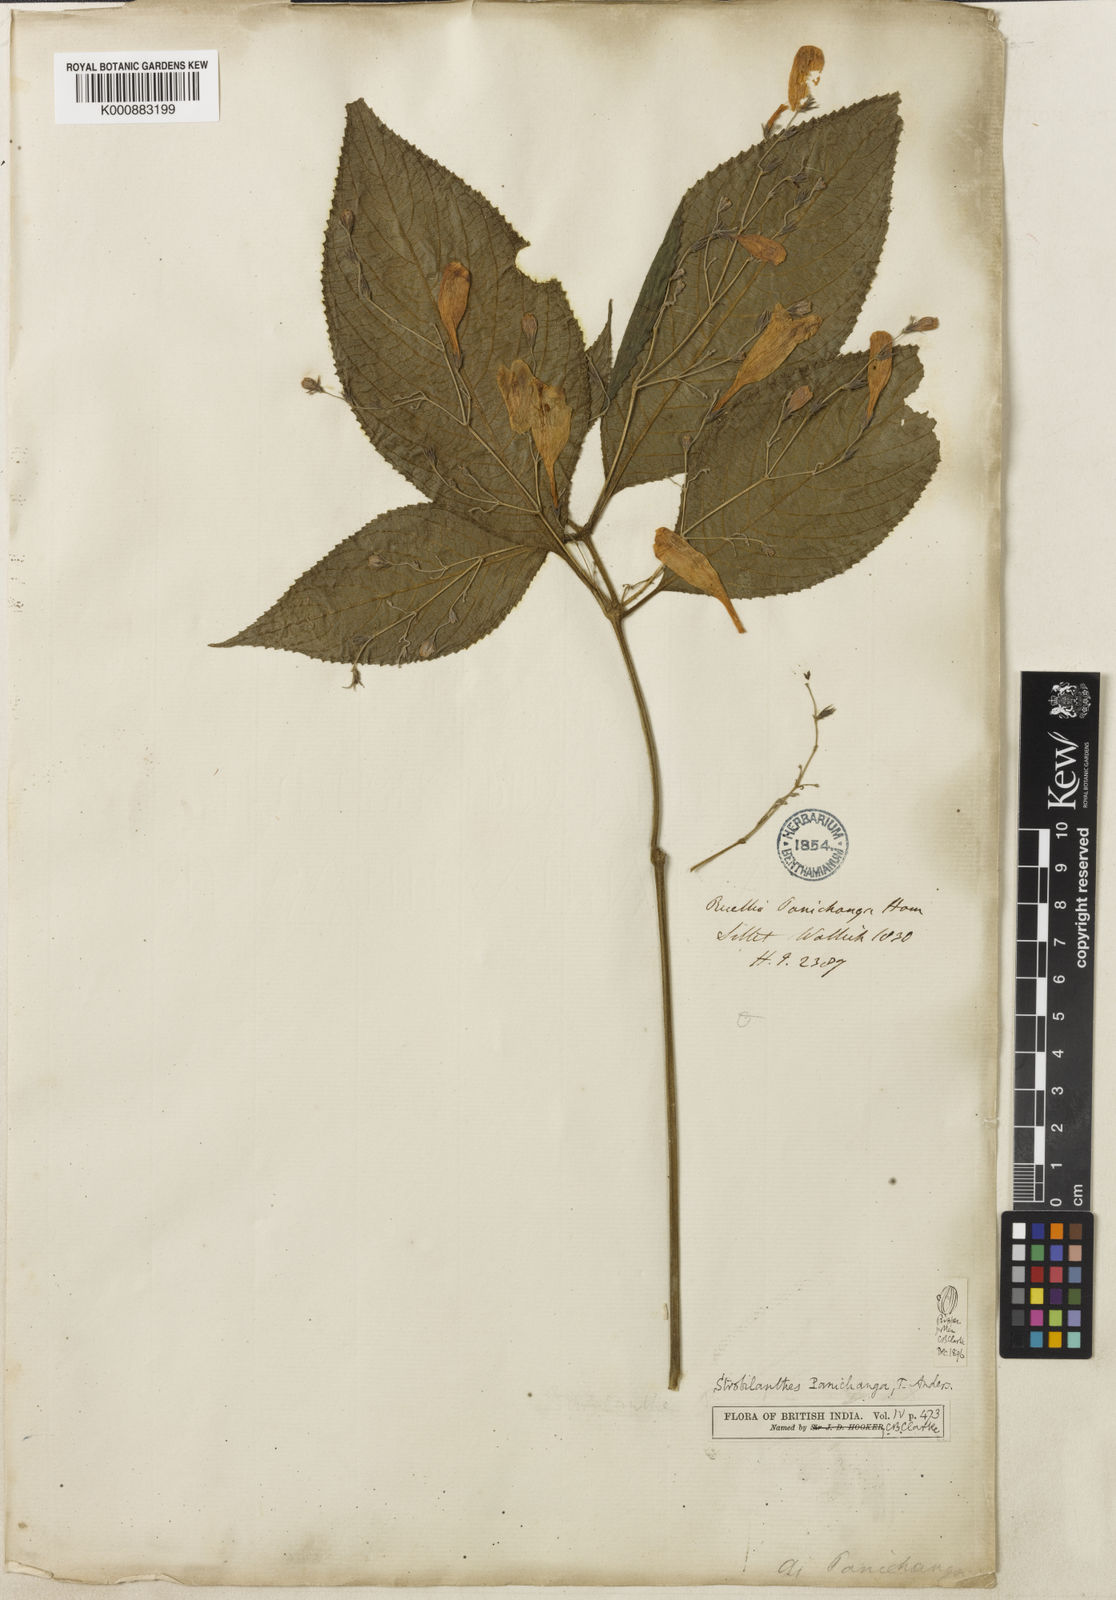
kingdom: Plantae
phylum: Tracheophyta
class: Magnoliopsida
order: Lamiales
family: Acanthaceae
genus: Strobilanthes
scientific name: Strobilanthes panichanga
